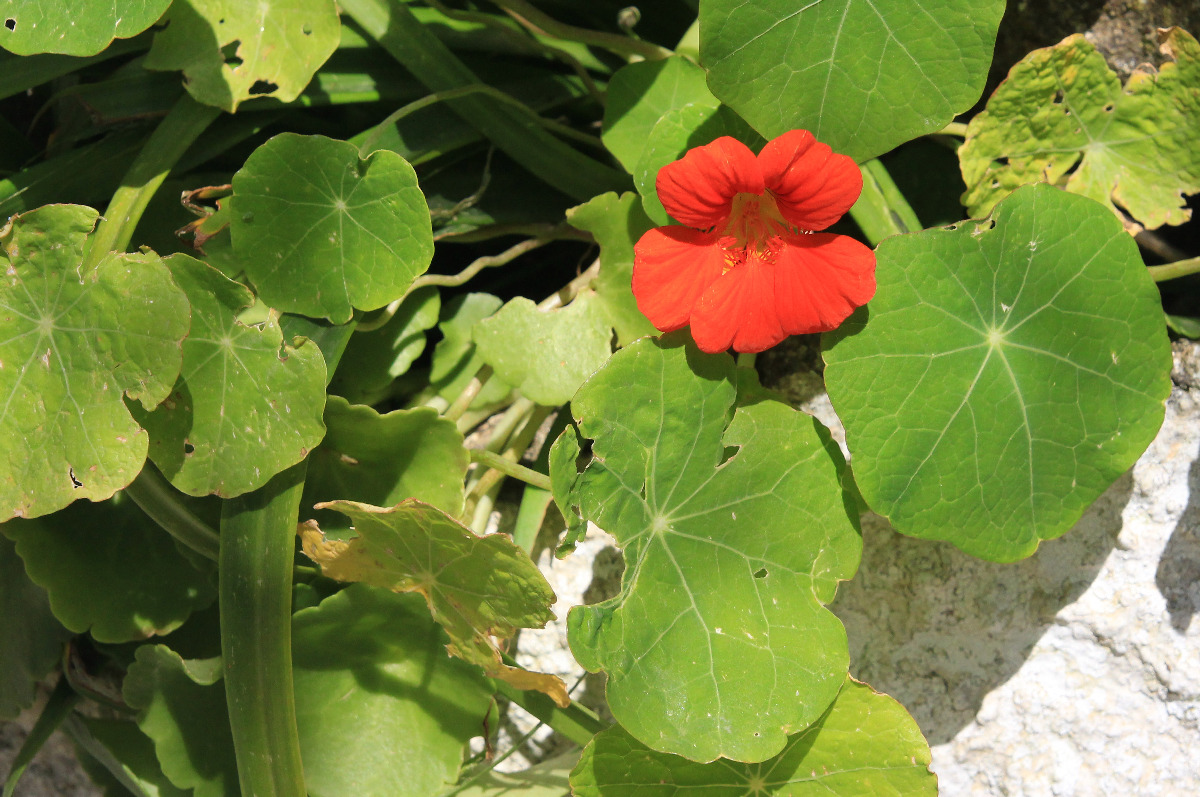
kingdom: Plantae
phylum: Tracheophyta
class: Magnoliopsida
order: Brassicales
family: Tropaeolaceae
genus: Tropaeolum
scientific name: Tropaeolum majus
